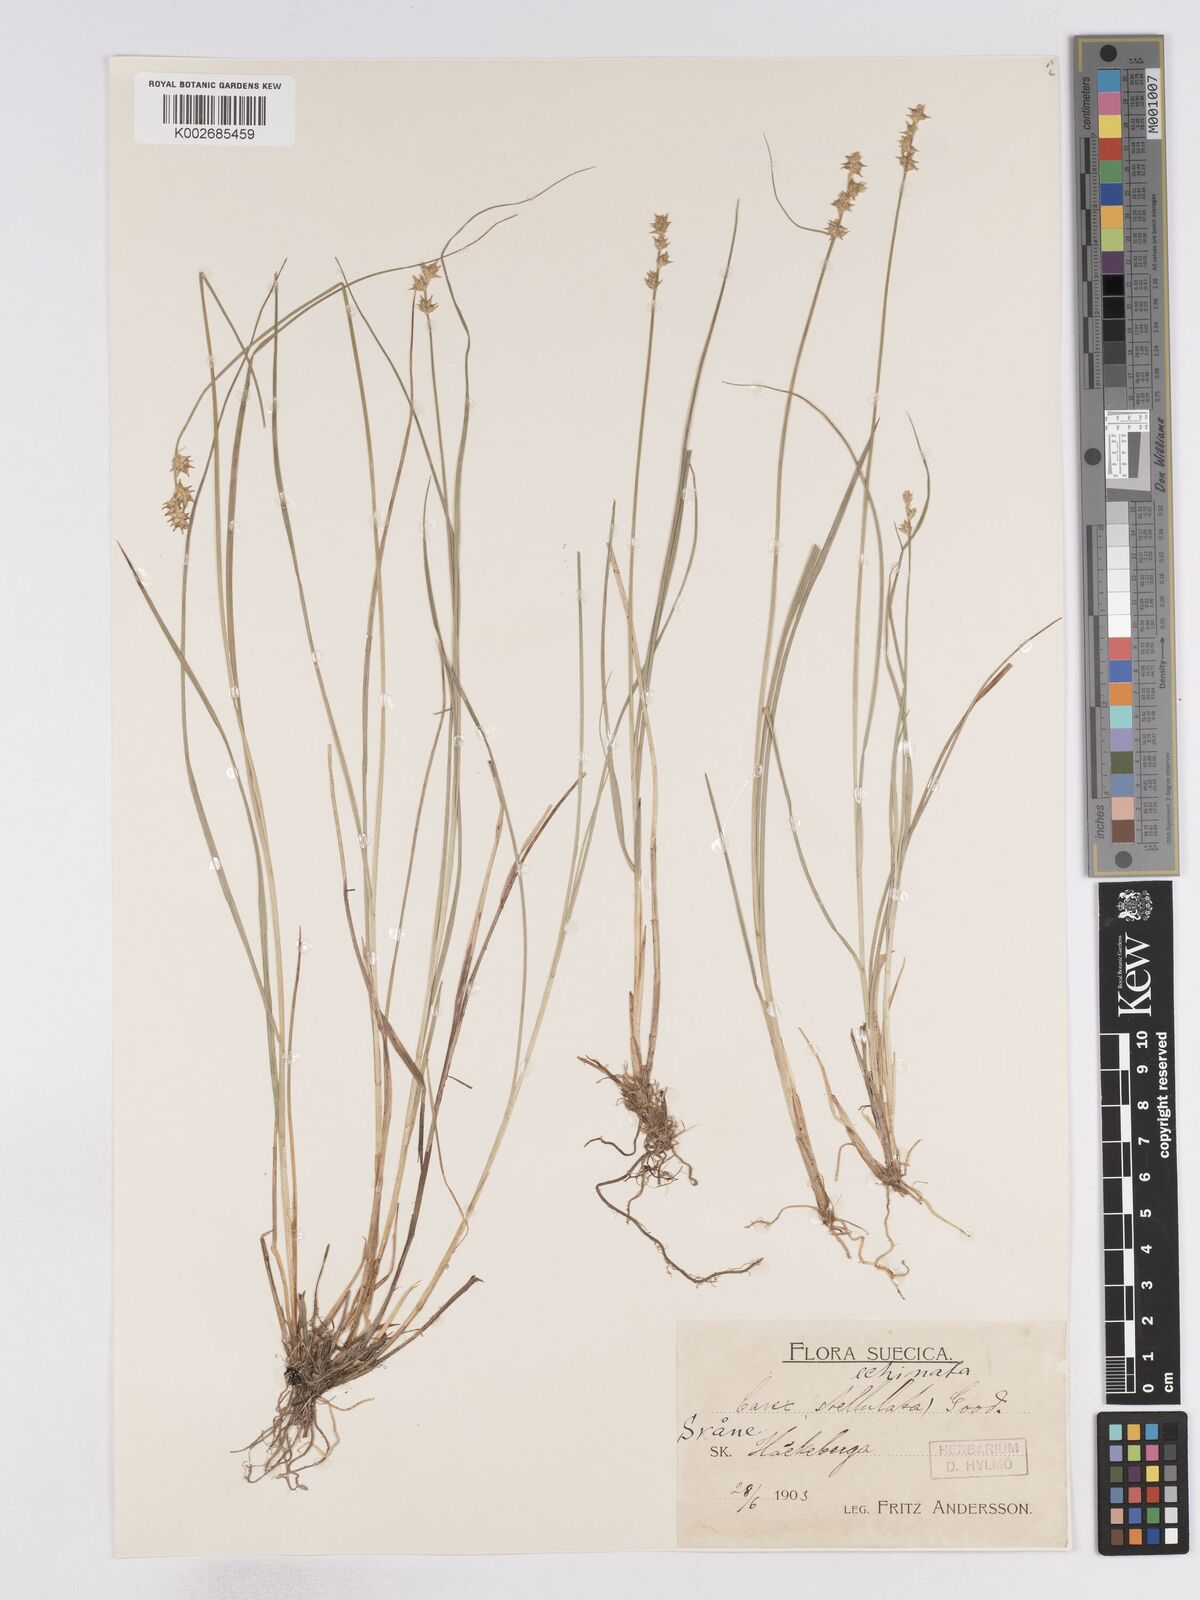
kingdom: Plantae
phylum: Tracheophyta
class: Liliopsida
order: Poales
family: Cyperaceae
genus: Carex
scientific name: Carex echinata
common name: Star sedge
